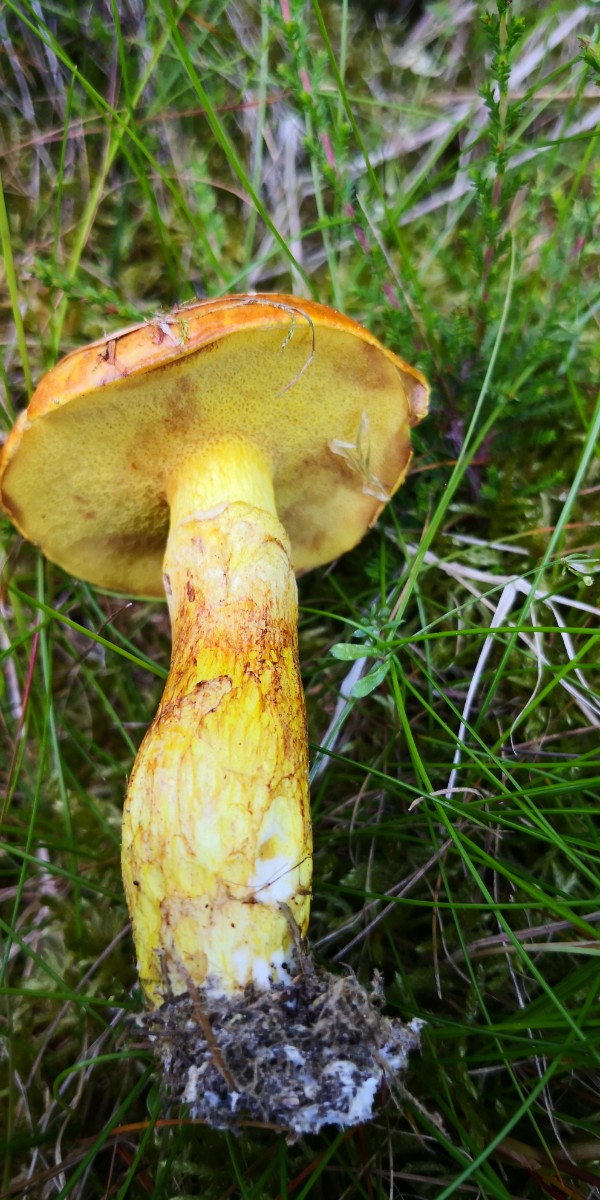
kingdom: Fungi
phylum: Basidiomycota
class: Agaricomycetes
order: Boletales
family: Suillaceae
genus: Suillus
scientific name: Suillus grevillei
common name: lærke-slimrørhat
